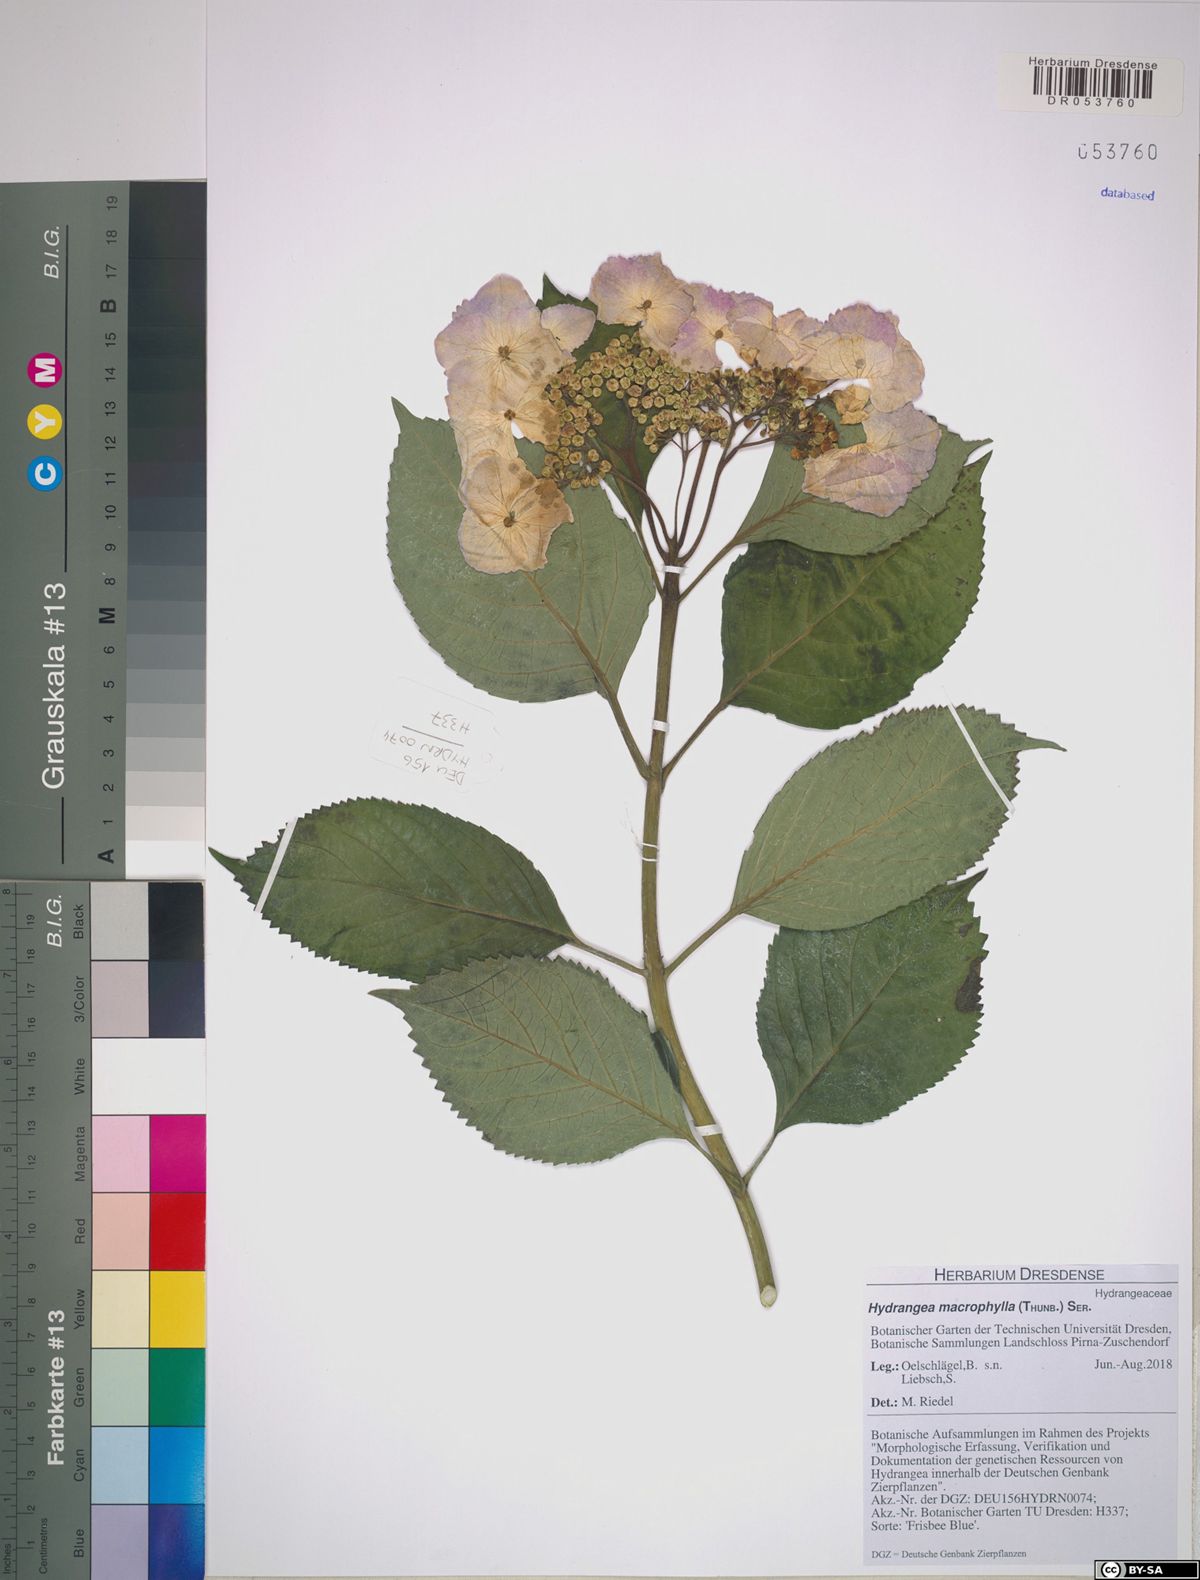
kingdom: Plantae
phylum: Tracheophyta
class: Magnoliopsida
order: Cornales
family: Hydrangeaceae
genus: Hydrangea
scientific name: Hydrangea macrophylla
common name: Hydrangea
